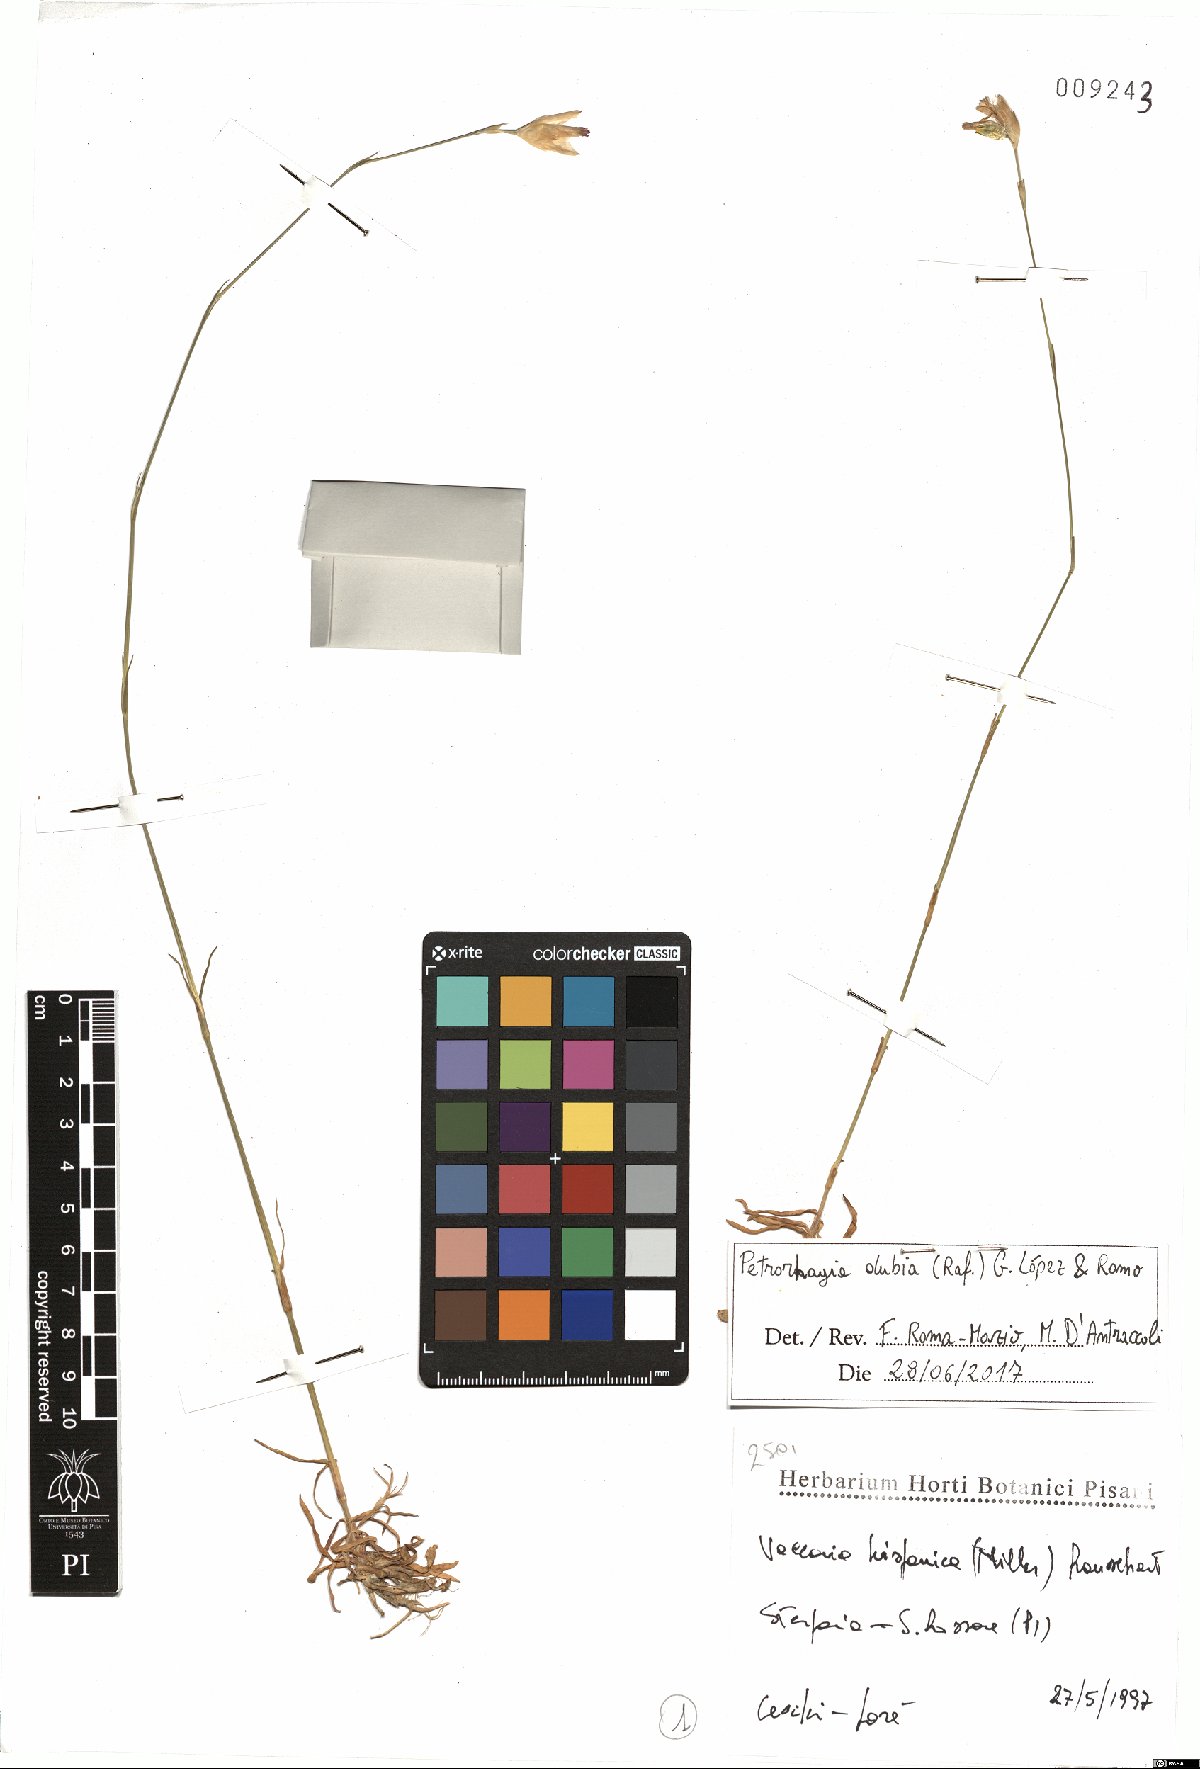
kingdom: Plantae
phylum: Tracheophyta
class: Magnoliopsida
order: Caryophyllales
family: Caryophyllaceae
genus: Petrorhagia
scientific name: Petrorhagia dubia
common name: Hairypink
